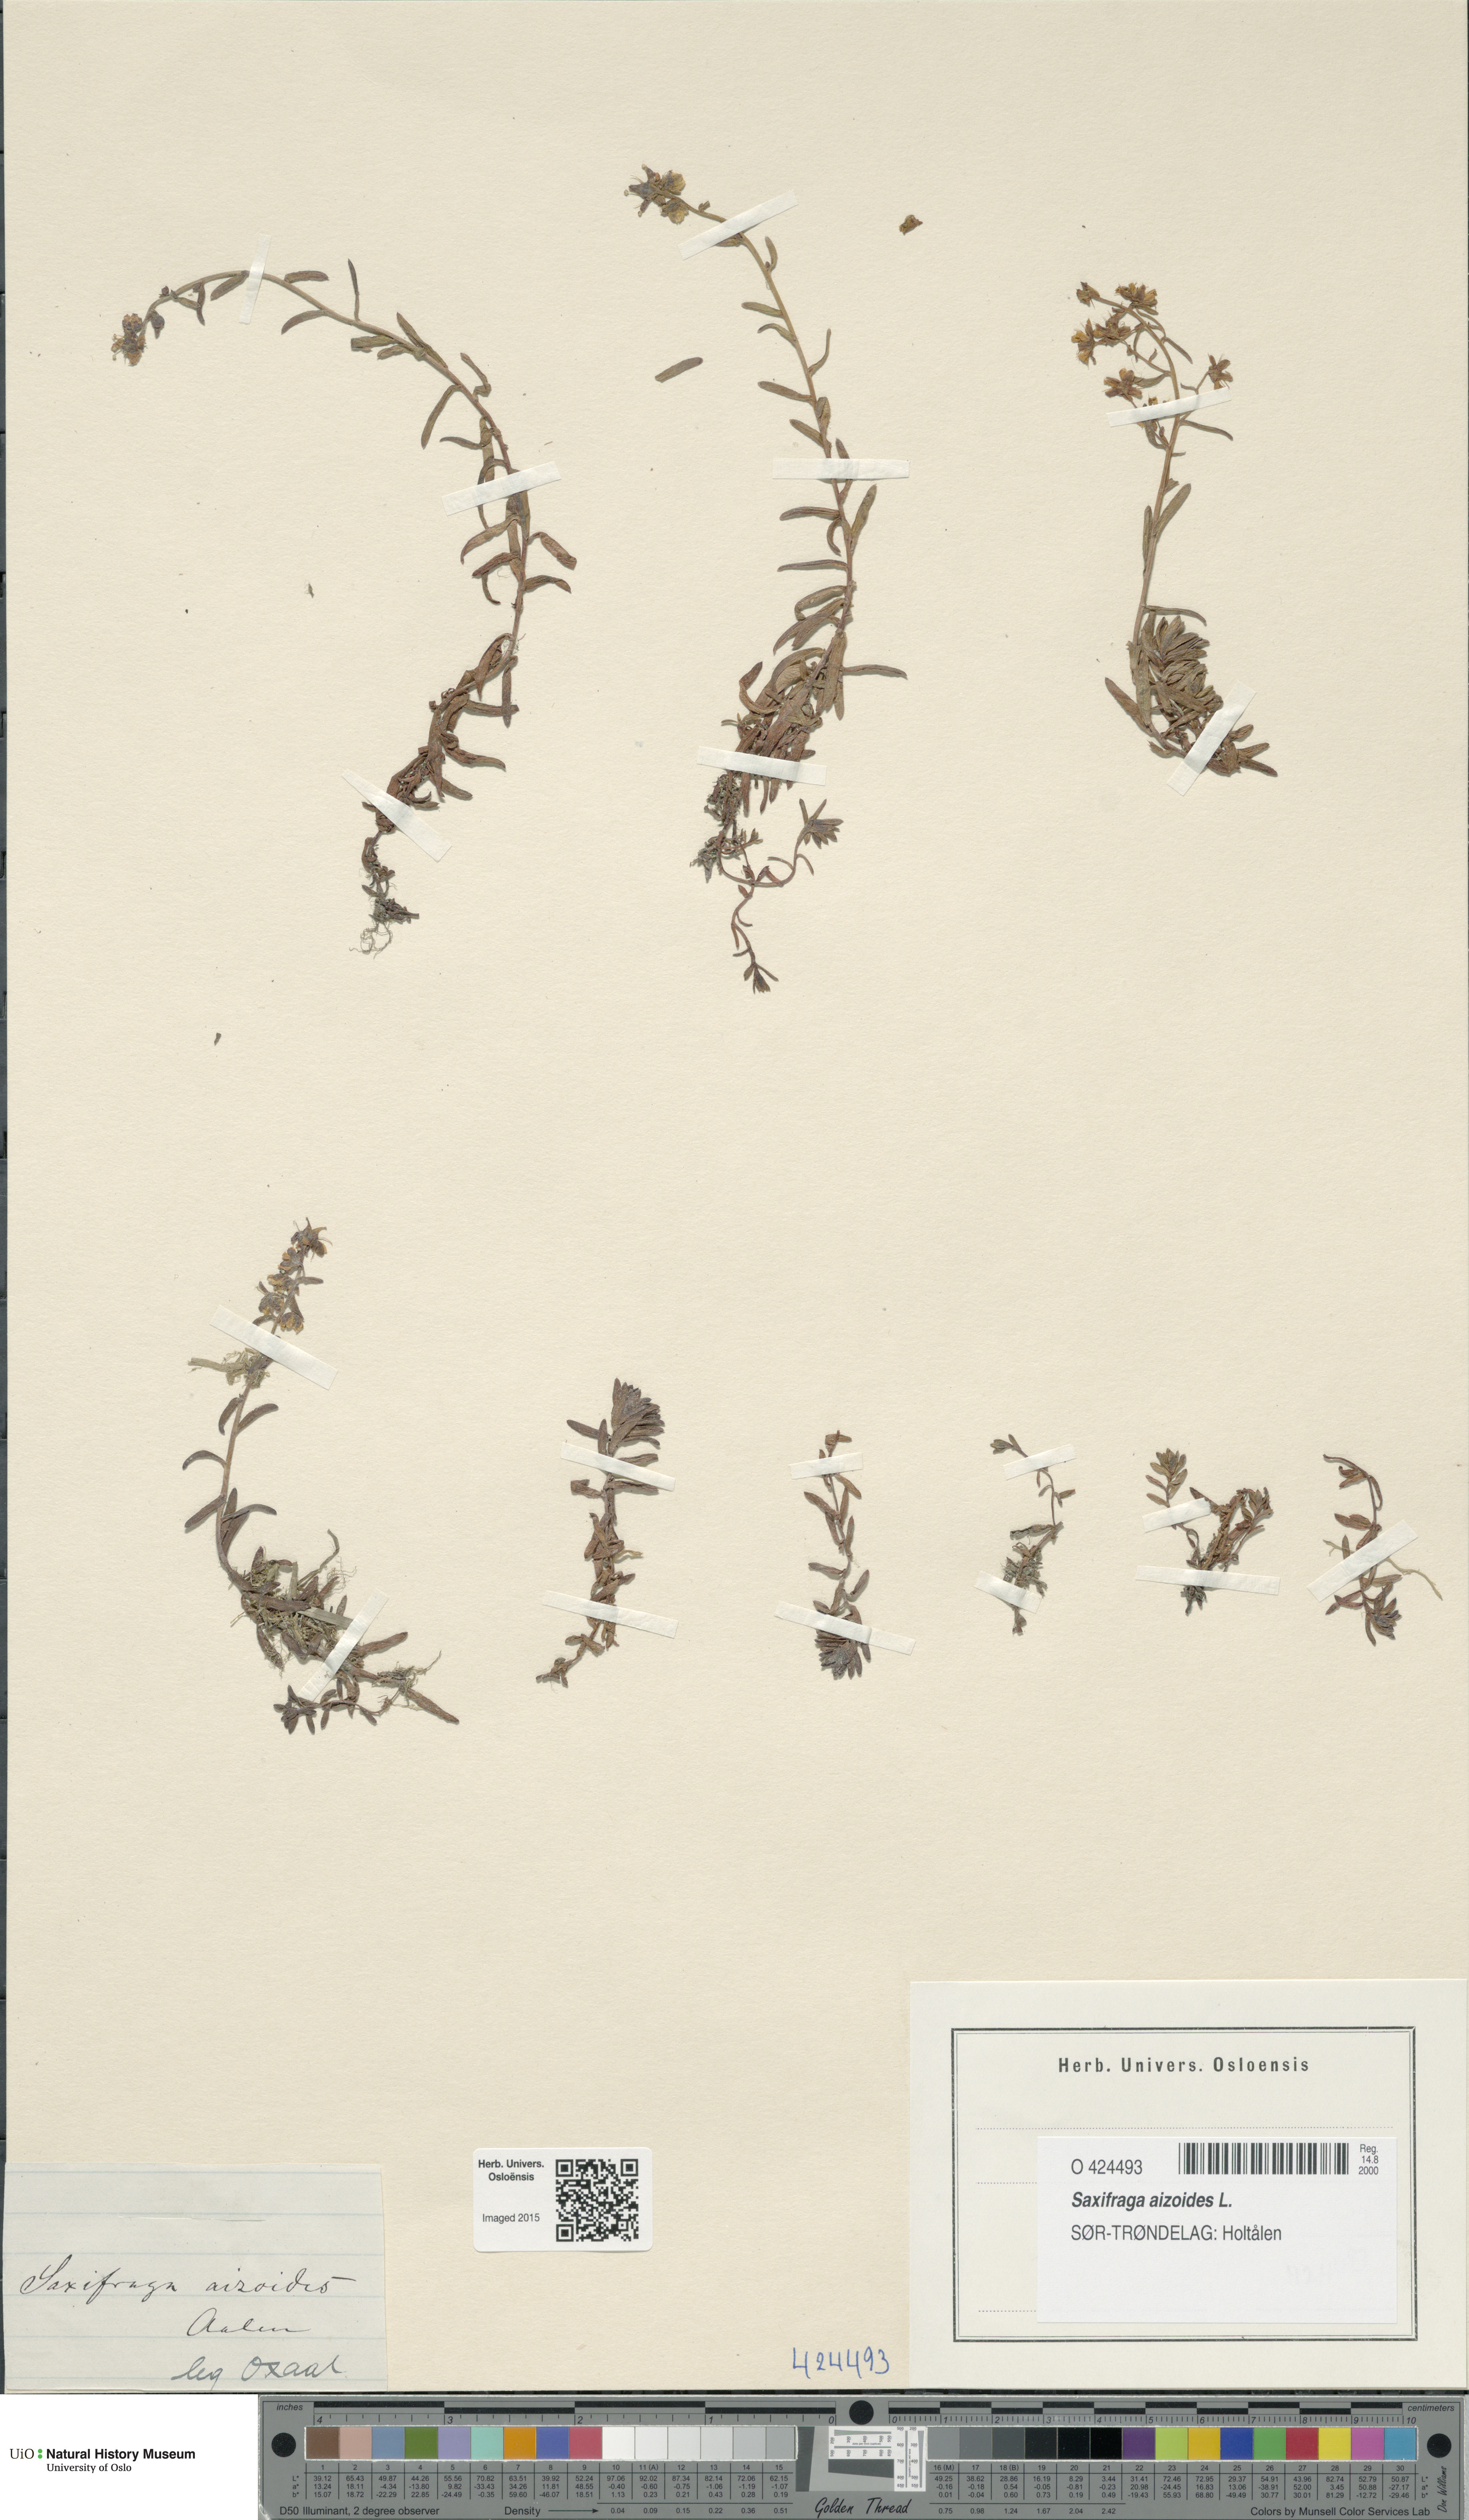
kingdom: Plantae
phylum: Tracheophyta
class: Magnoliopsida
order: Saxifragales
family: Saxifragaceae
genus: Saxifraga
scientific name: Saxifraga aizoides
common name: Yellow mountain saxifrage
